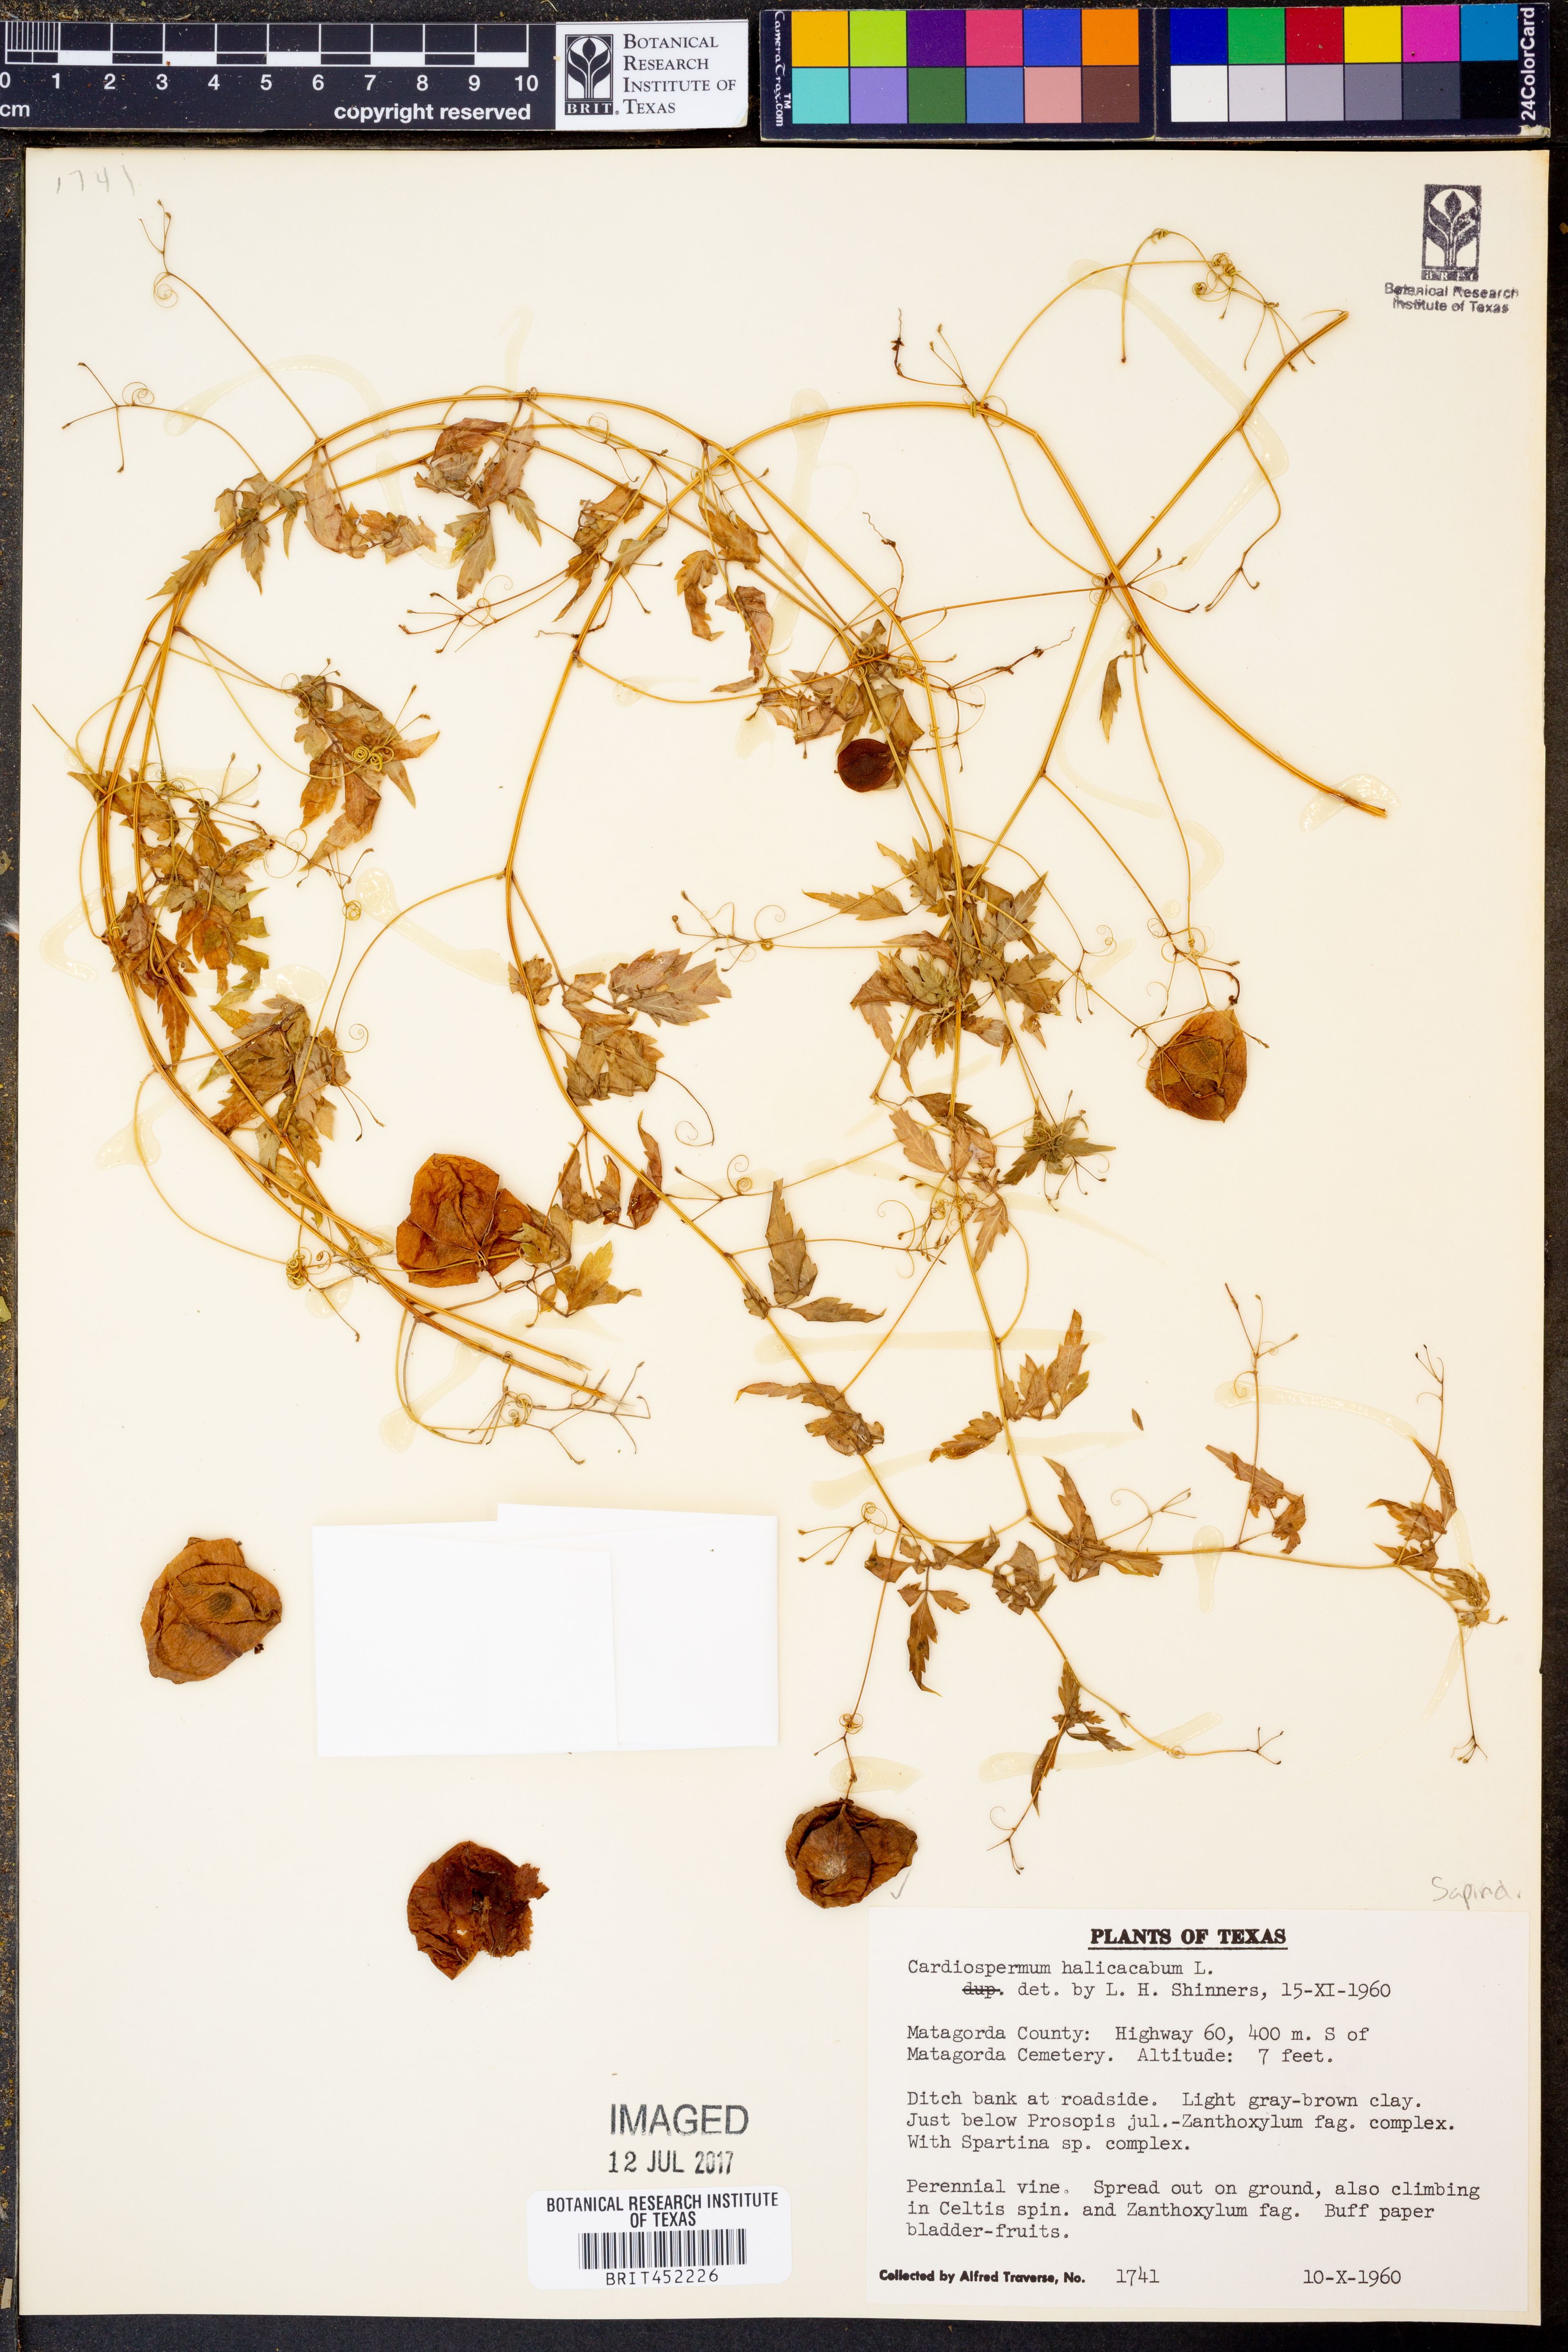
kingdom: Plantae
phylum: Tracheophyta
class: Magnoliopsida
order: Sapindales
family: Sapindaceae
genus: Cardiospermum
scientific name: Cardiospermum halicacabum
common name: Balloon vine
